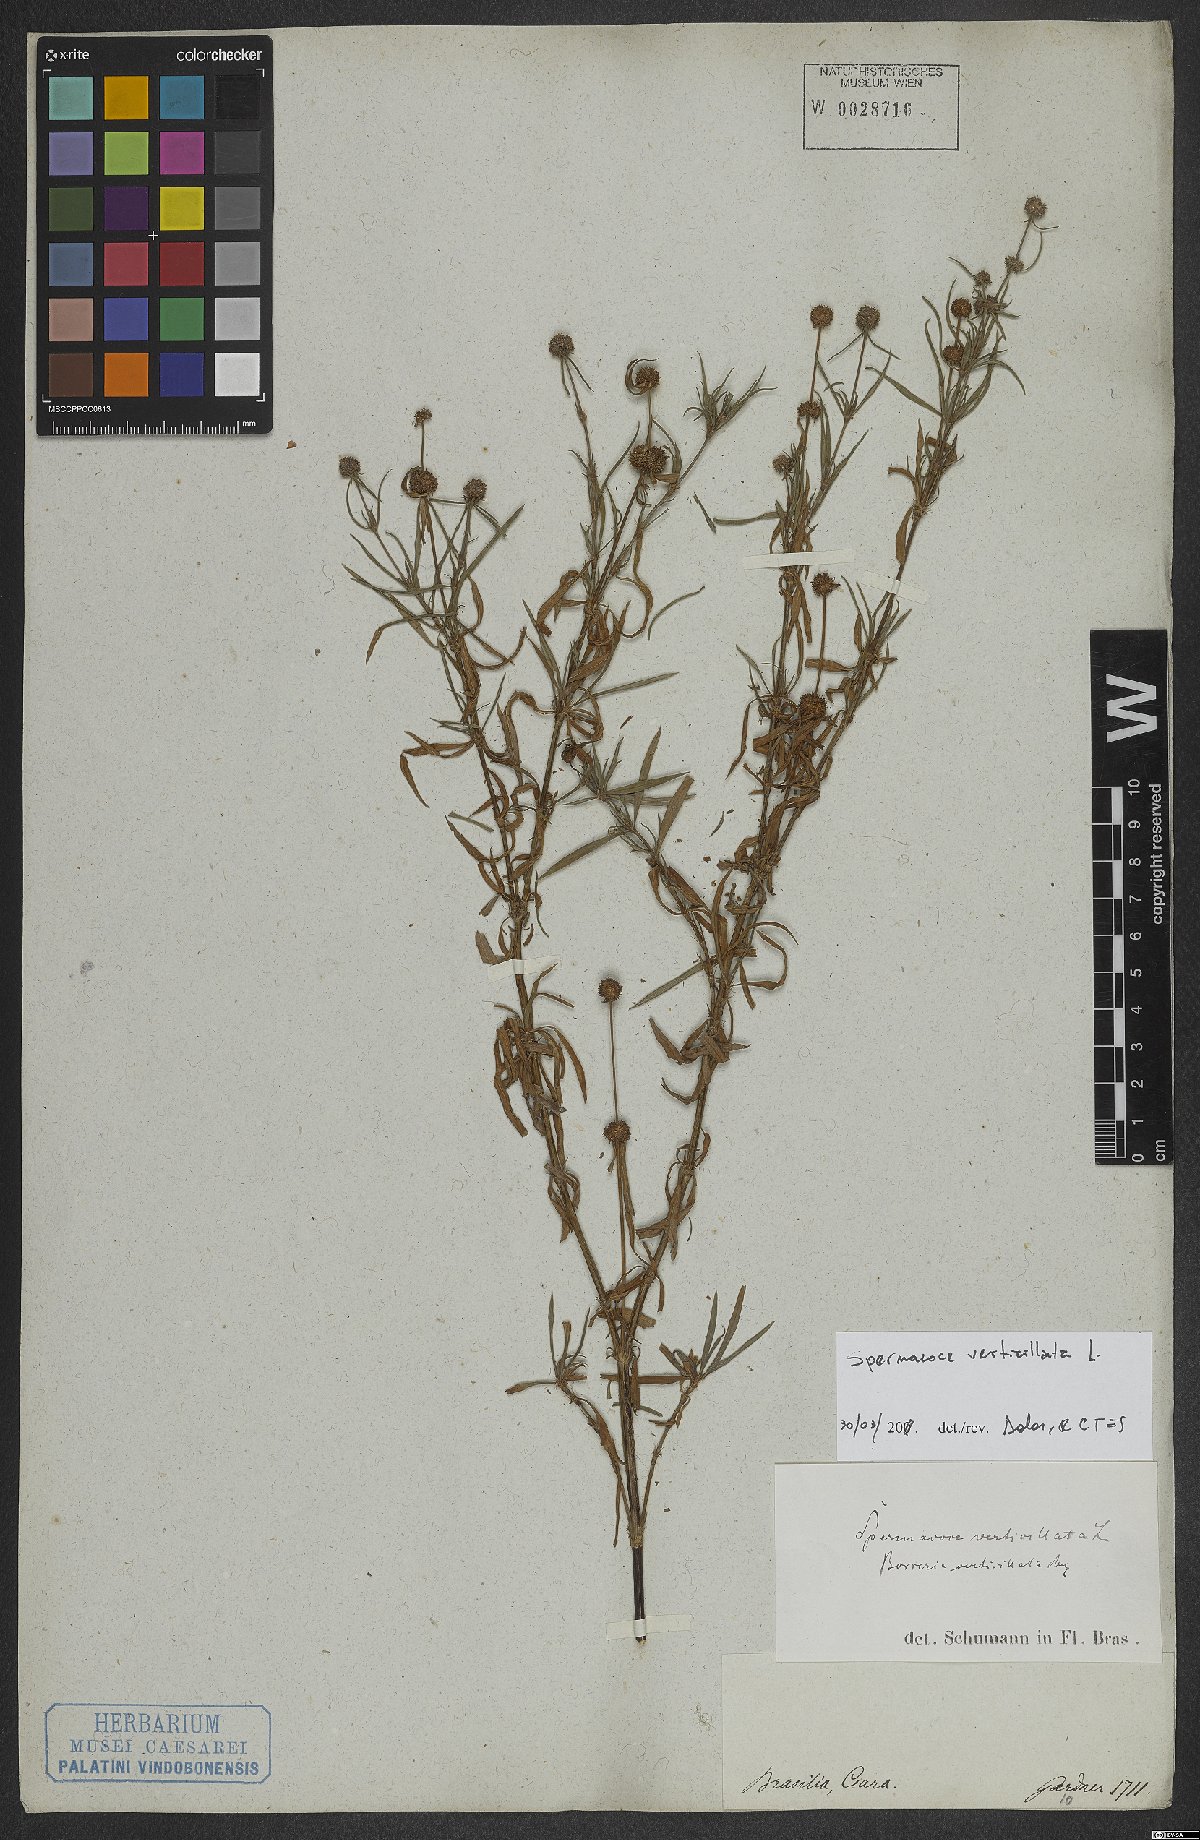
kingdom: Plantae
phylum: Tracheophyta
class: Magnoliopsida
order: Gentianales
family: Rubiaceae
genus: Spermacoce
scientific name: Spermacoce verticillata
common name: Shrubby false buttonweed
